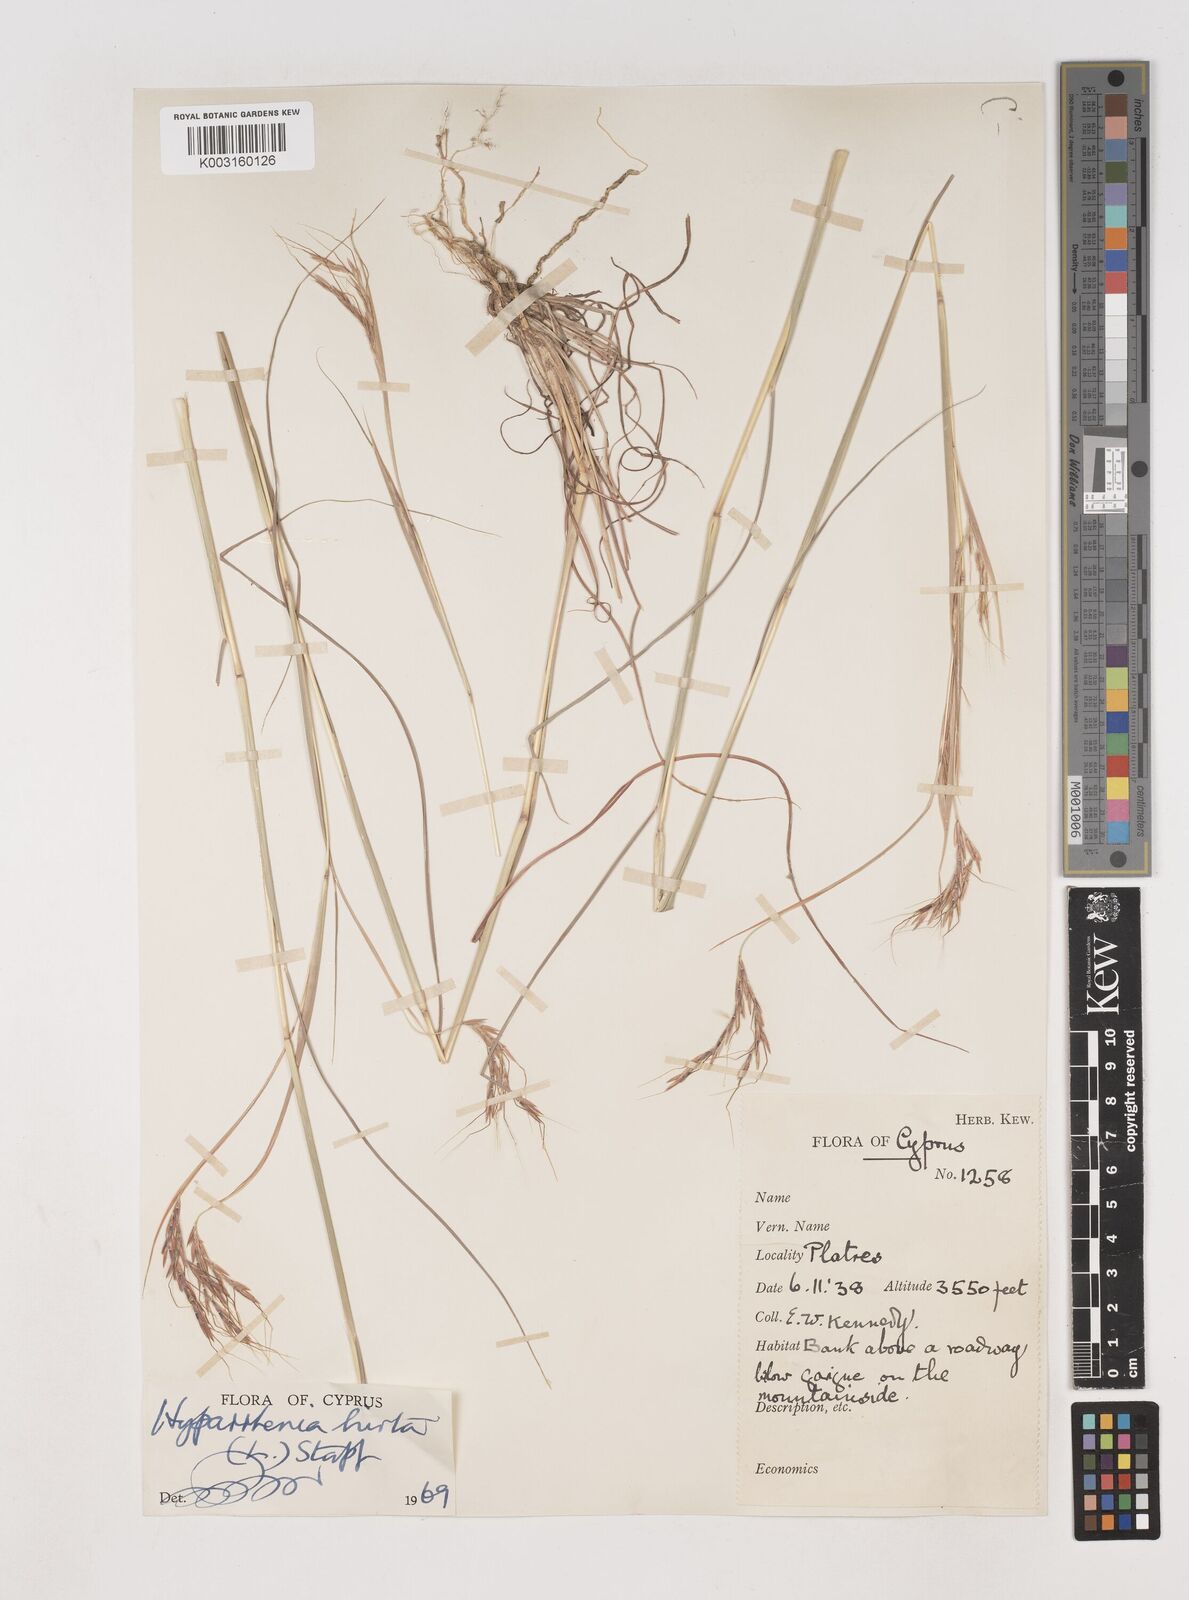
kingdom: Plantae
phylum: Tracheophyta
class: Liliopsida
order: Poales
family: Poaceae
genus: Hyparrhenia
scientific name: Hyparrhenia hirta
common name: Thatching grass
